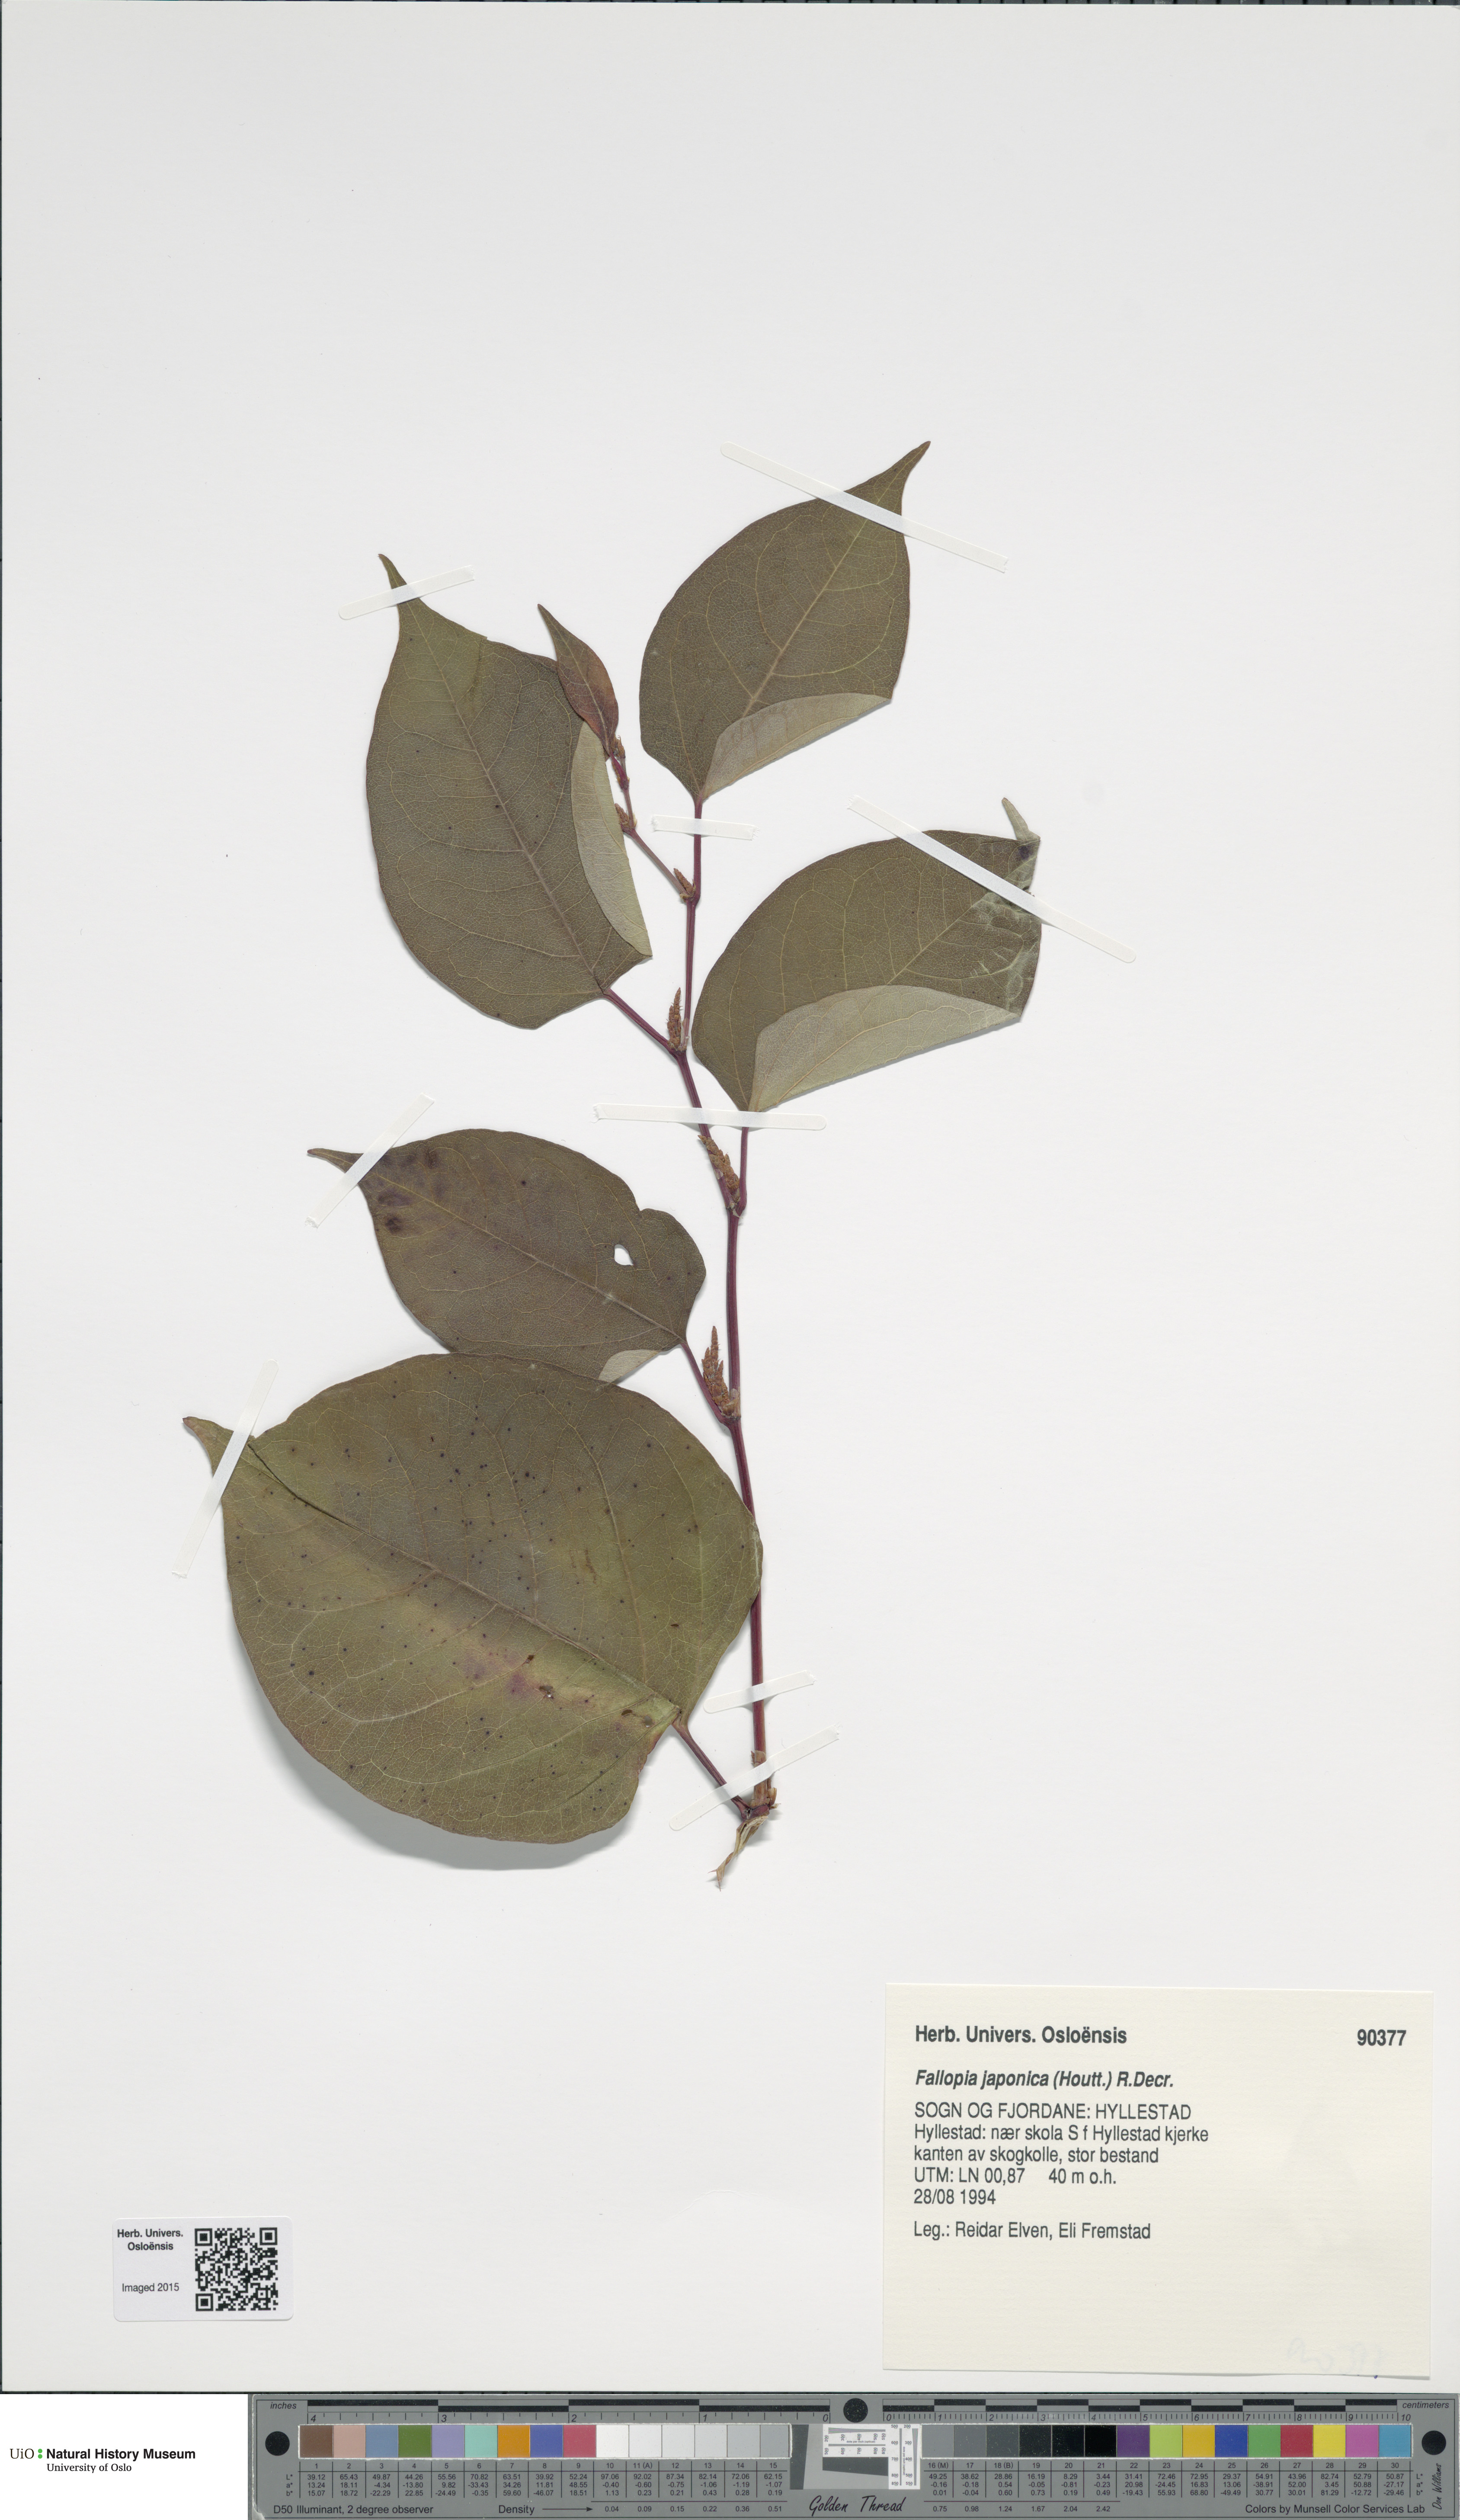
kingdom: Plantae
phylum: Tracheophyta
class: Magnoliopsida
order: Caryophyllales
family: Polygonaceae
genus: Reynoutria
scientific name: Reynoutria japonica
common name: Japanese knotweed
